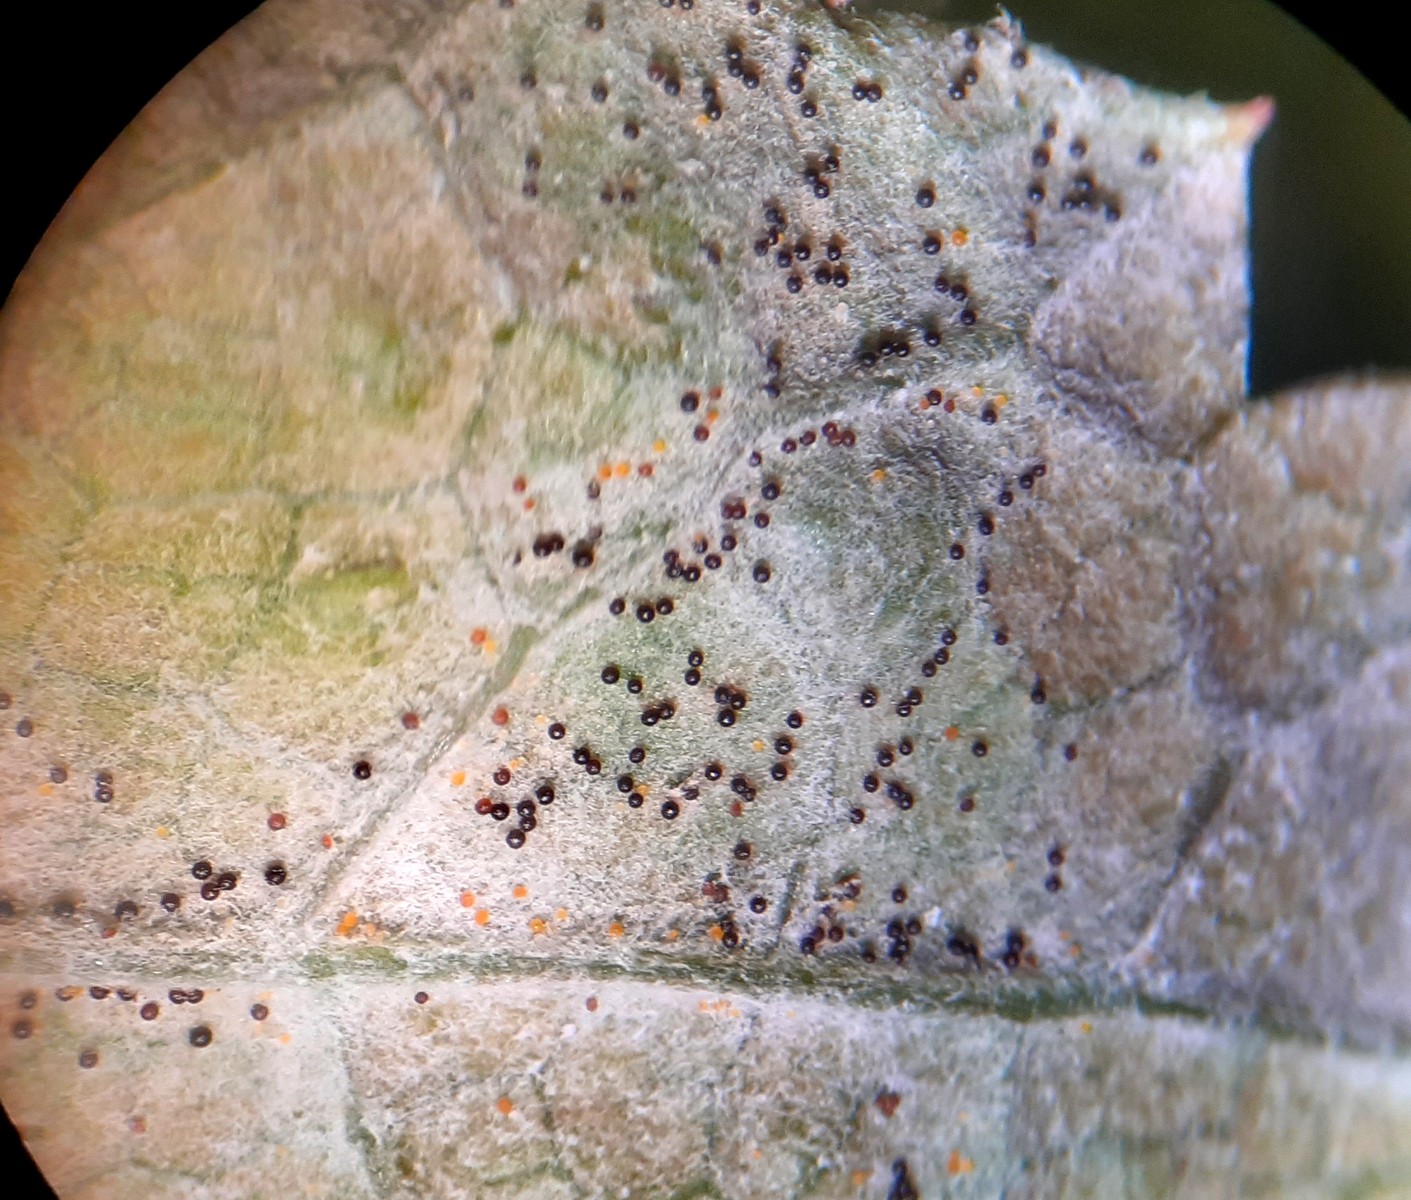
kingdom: Fungi
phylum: Ascomycota
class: Leotiomycetes
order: Helotiales
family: Erysiphaceae
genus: Erysiphe
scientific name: Erysiphe heraclei
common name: skærmplante-meldug
